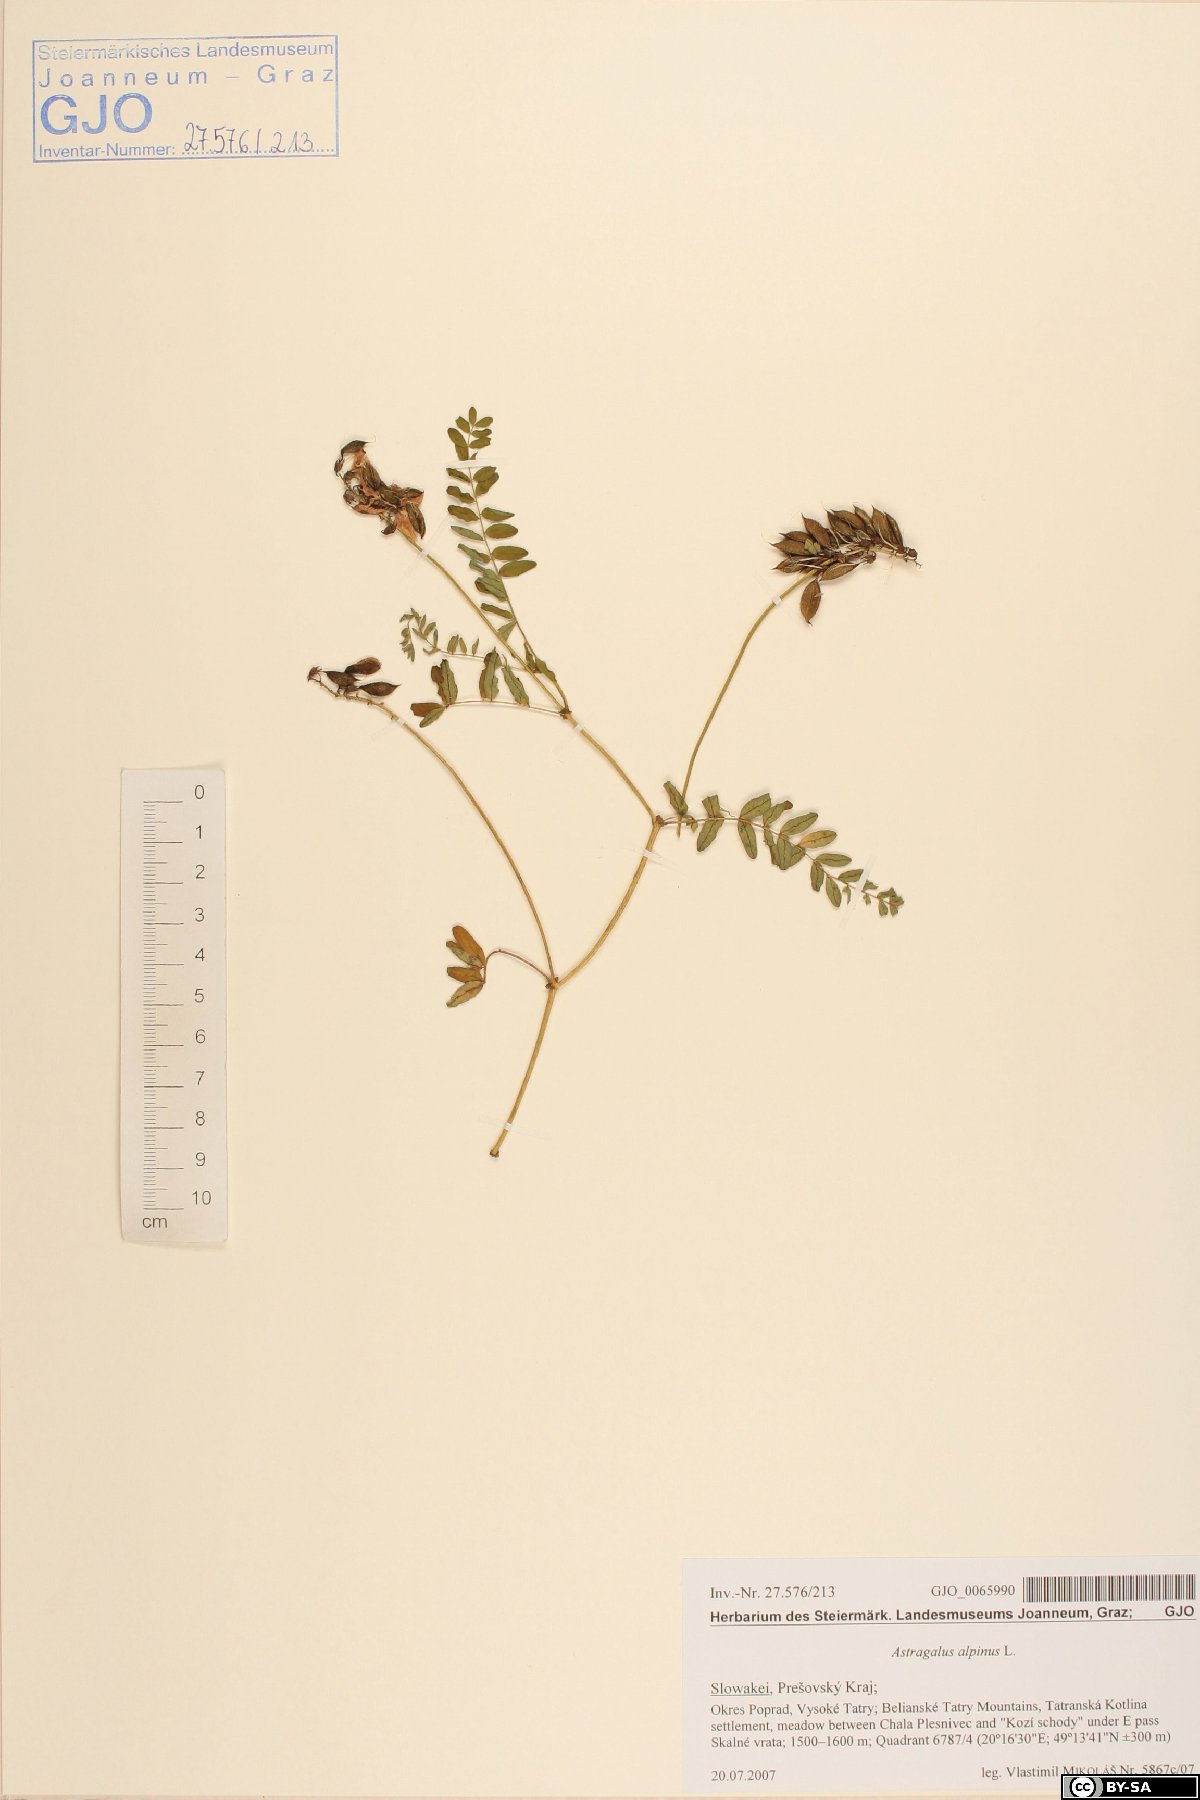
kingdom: Plantae
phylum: Tracheophyta
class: Magnoliopsida
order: Fabales
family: Fabaceae
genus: Astragalus
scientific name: Astragalus alpinus
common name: Alpine milk-vetch
